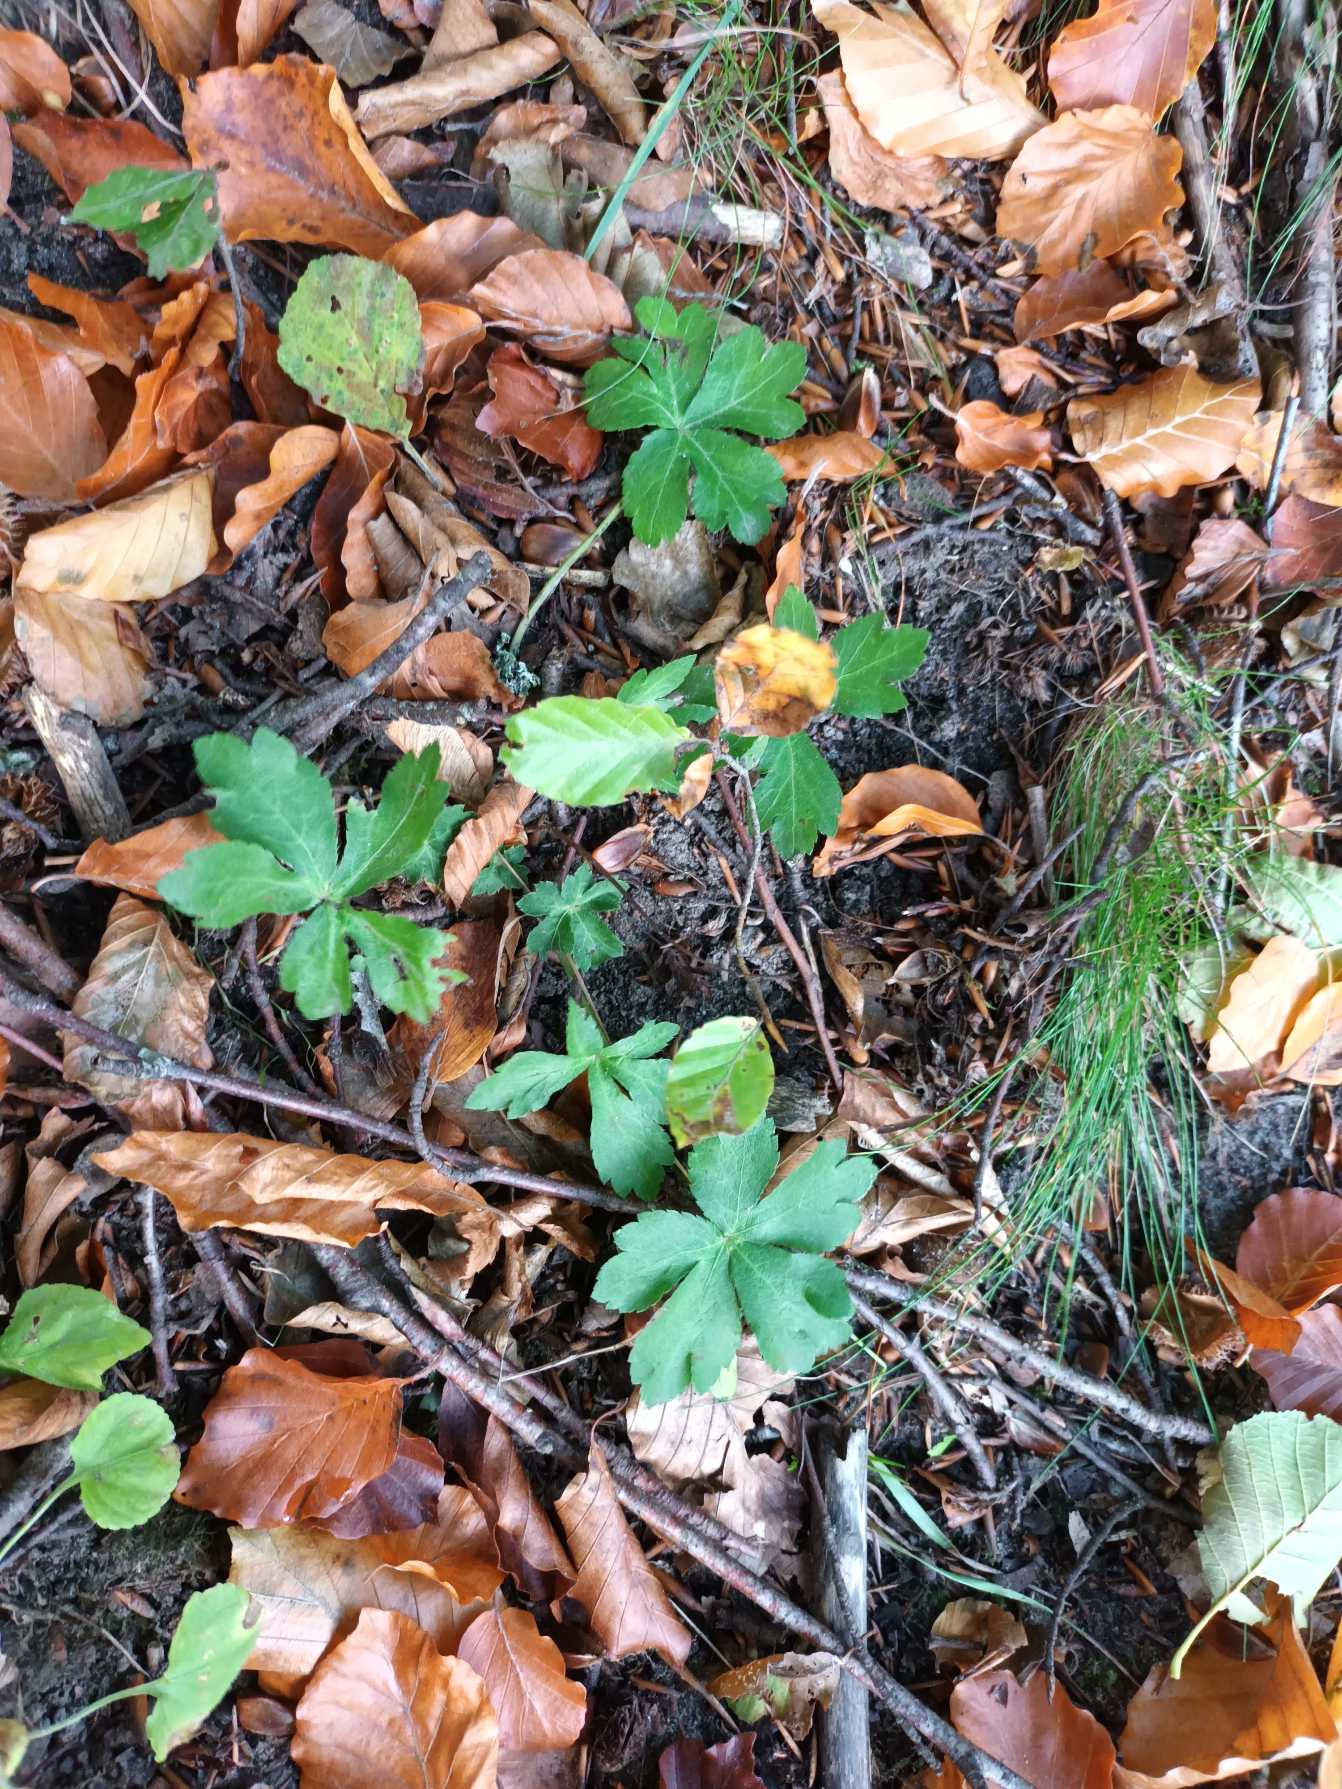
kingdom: Plantae
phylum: Tracheophyta
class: Magnoliopsida
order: Apiales
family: Apiaceae
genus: Sanicula
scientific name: Sanicula europaea
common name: Sanikel
